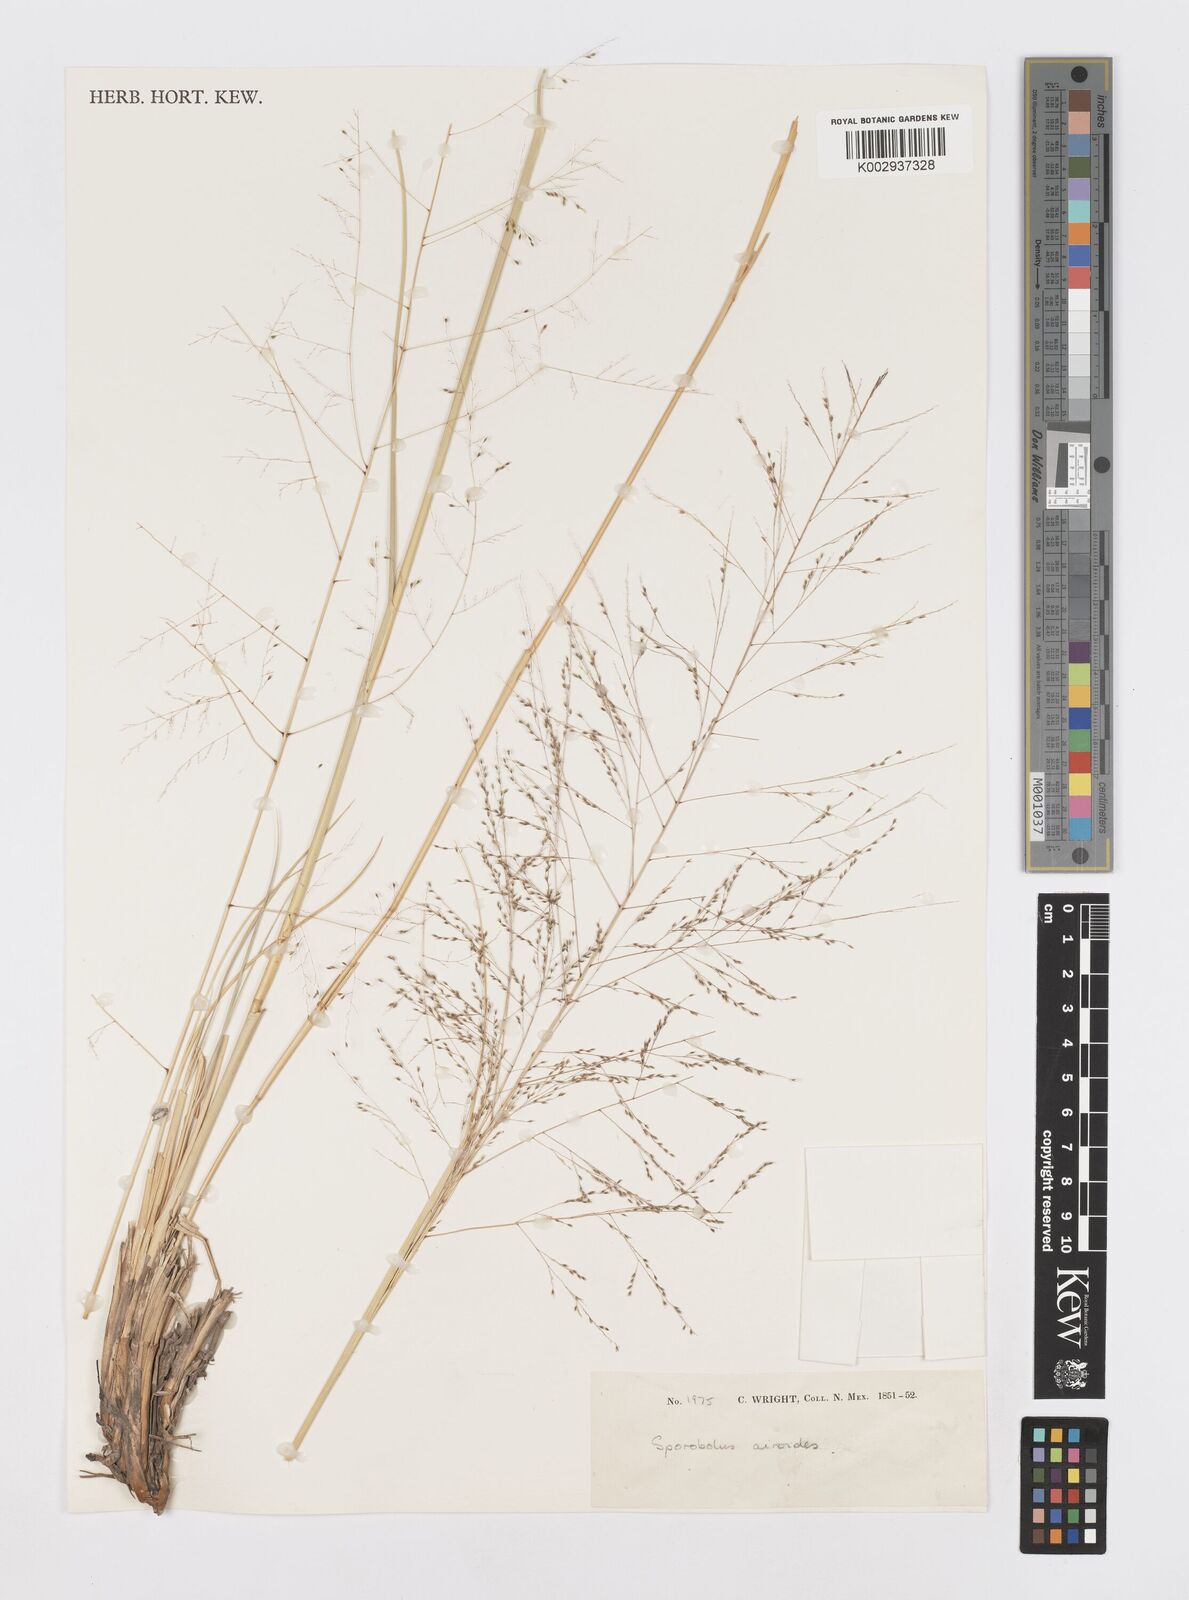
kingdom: Plantae
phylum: Tracheophyta
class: Liliopsida
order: Poales
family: Poaceae
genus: Sporobolus
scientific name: Sporobolus airoides
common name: Alkali sacaton
